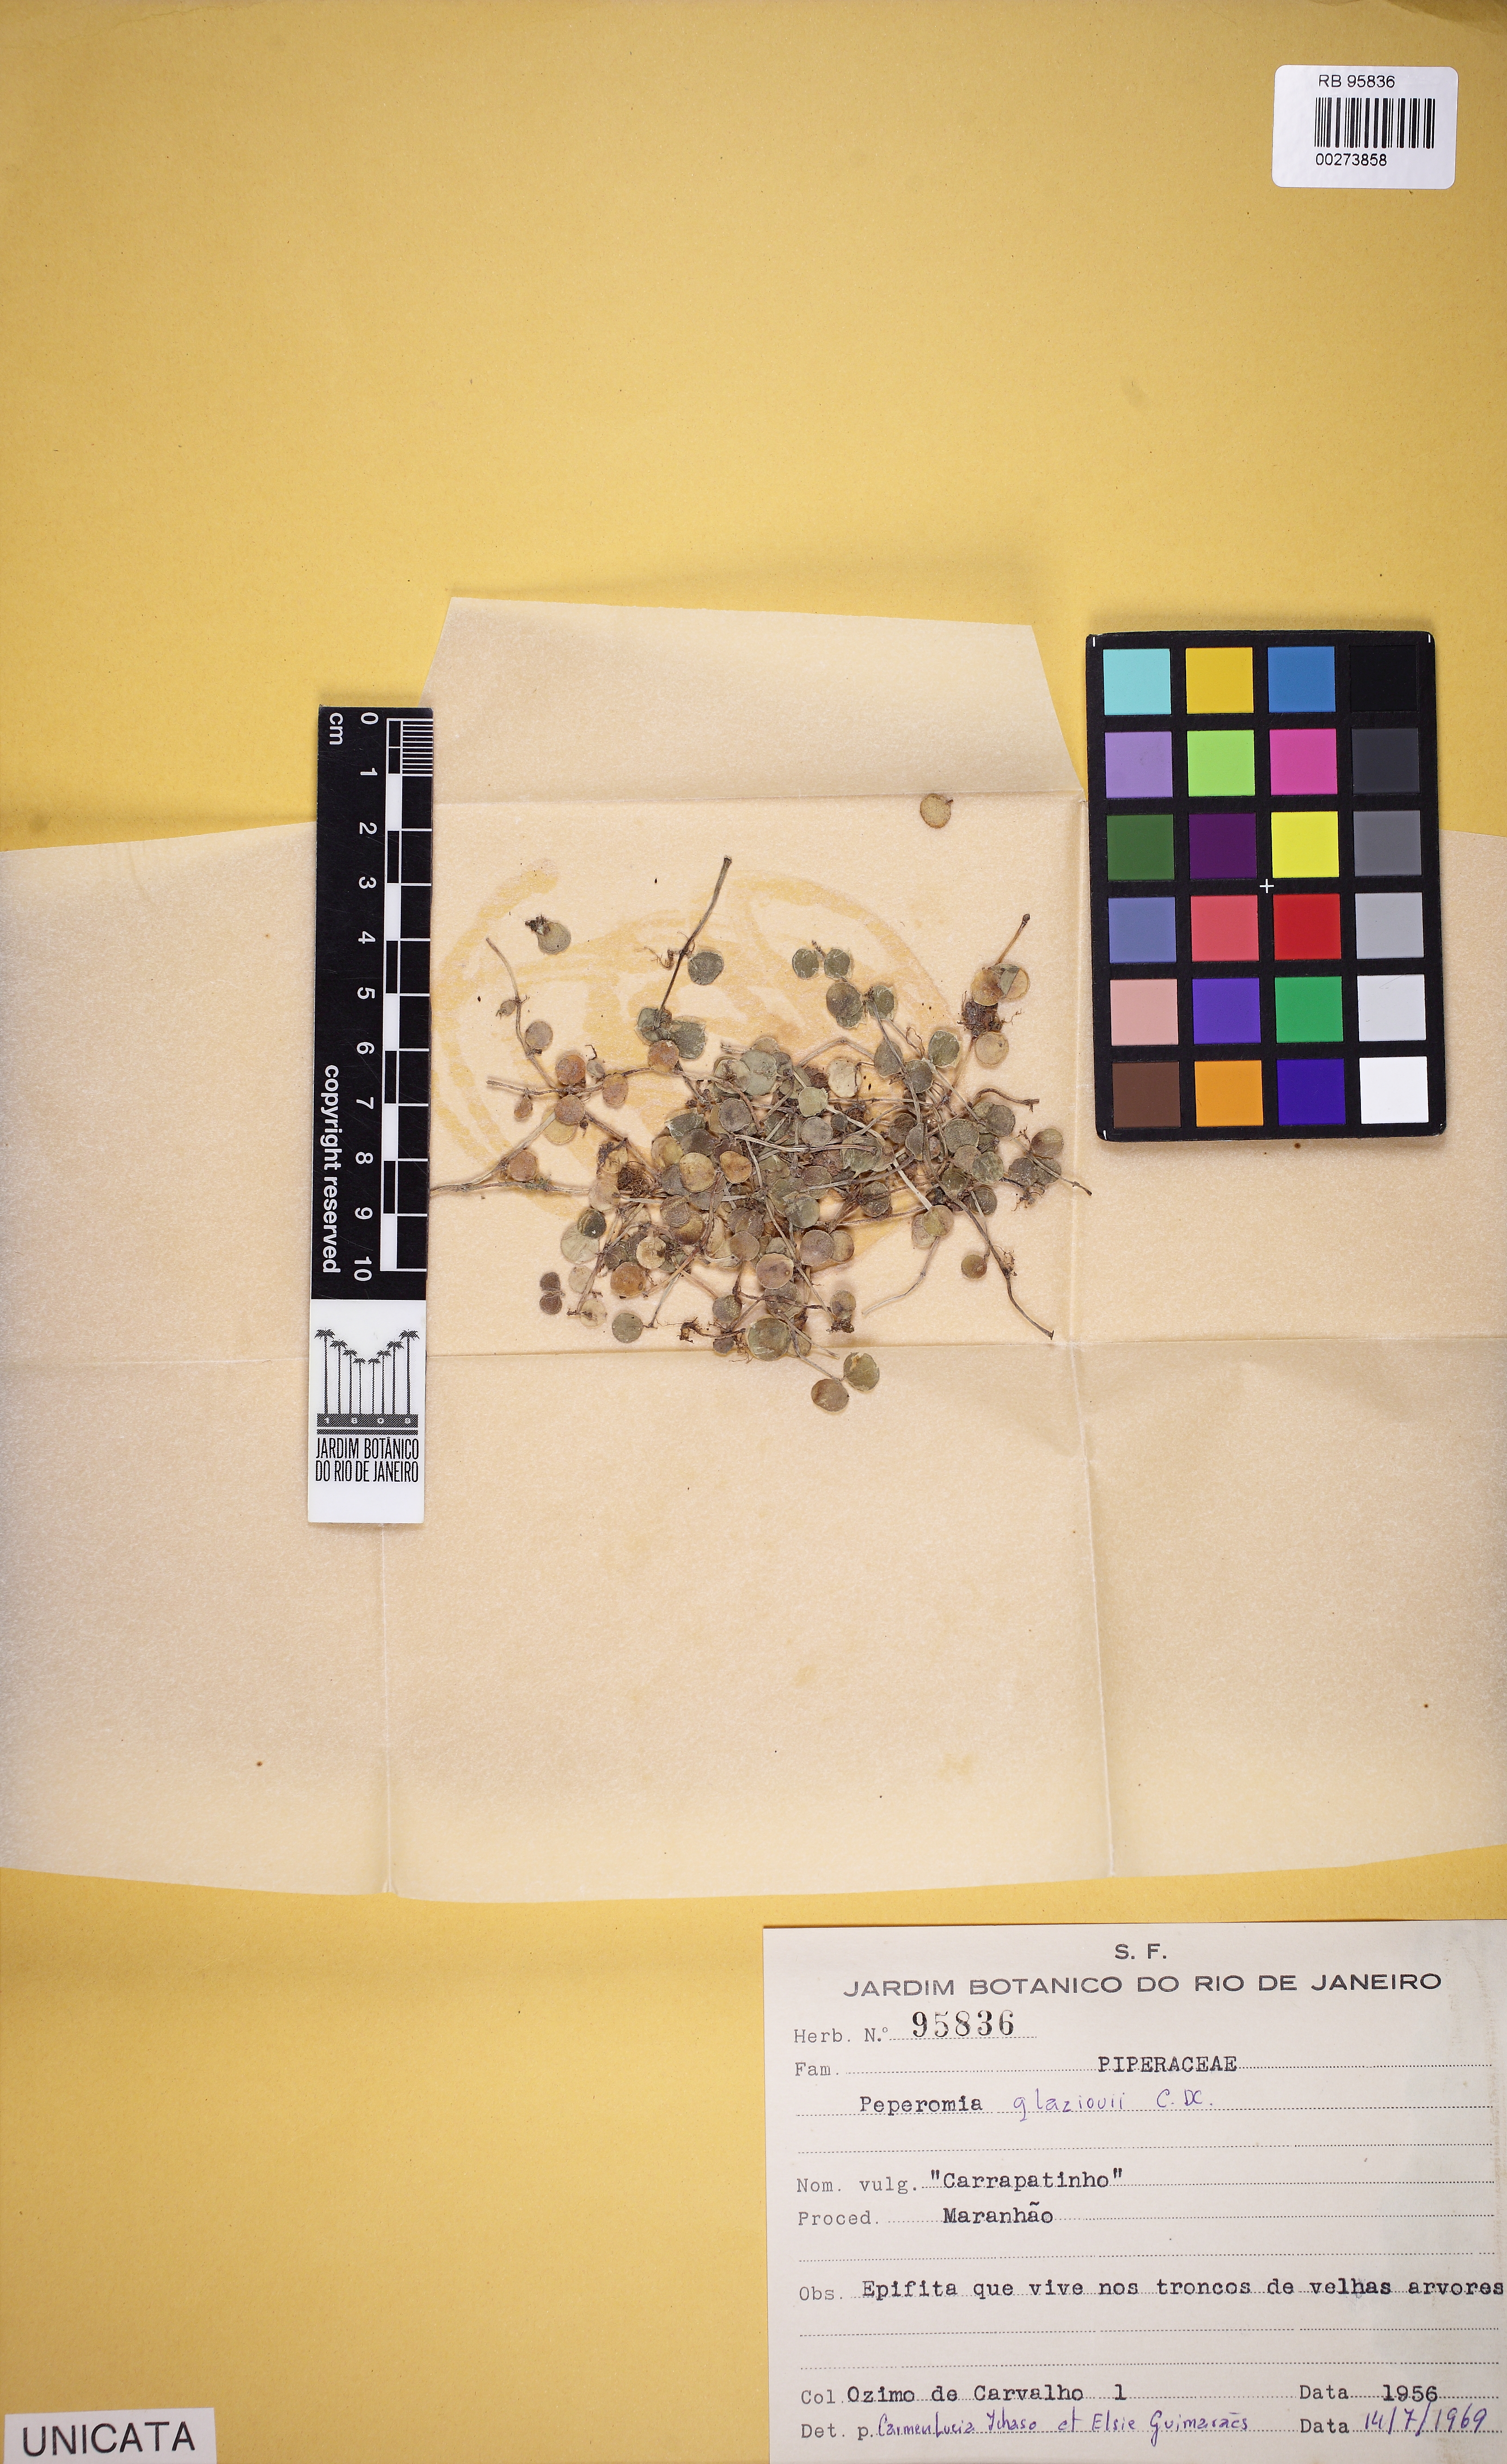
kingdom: Plantae
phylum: Tracheophyta
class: Magnoliopsida
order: Piperales
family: Piperaceae
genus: Peperomia
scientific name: Peperomia glazioui
